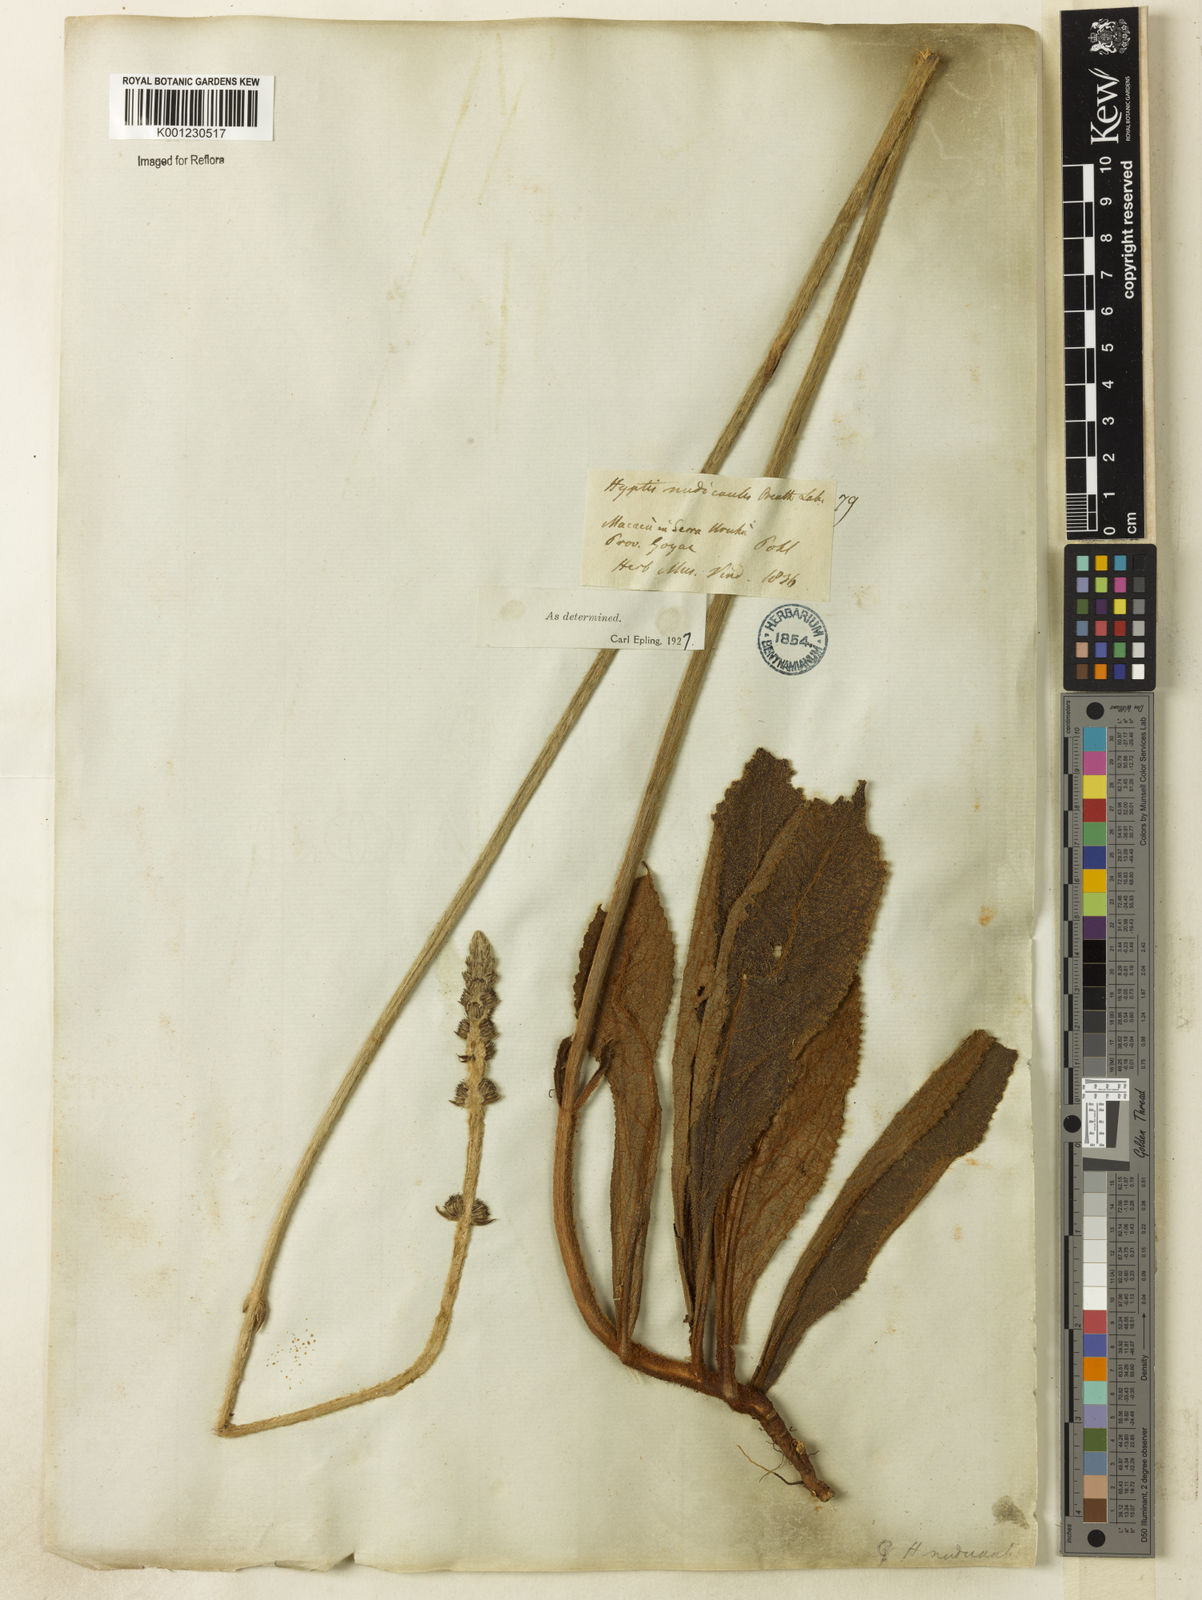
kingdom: Plantae
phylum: Tracheophyta
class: Magnoliopsida
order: Lamiales
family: Lamiaceae
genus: Hyptis
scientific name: Hyptis nudicaulis
